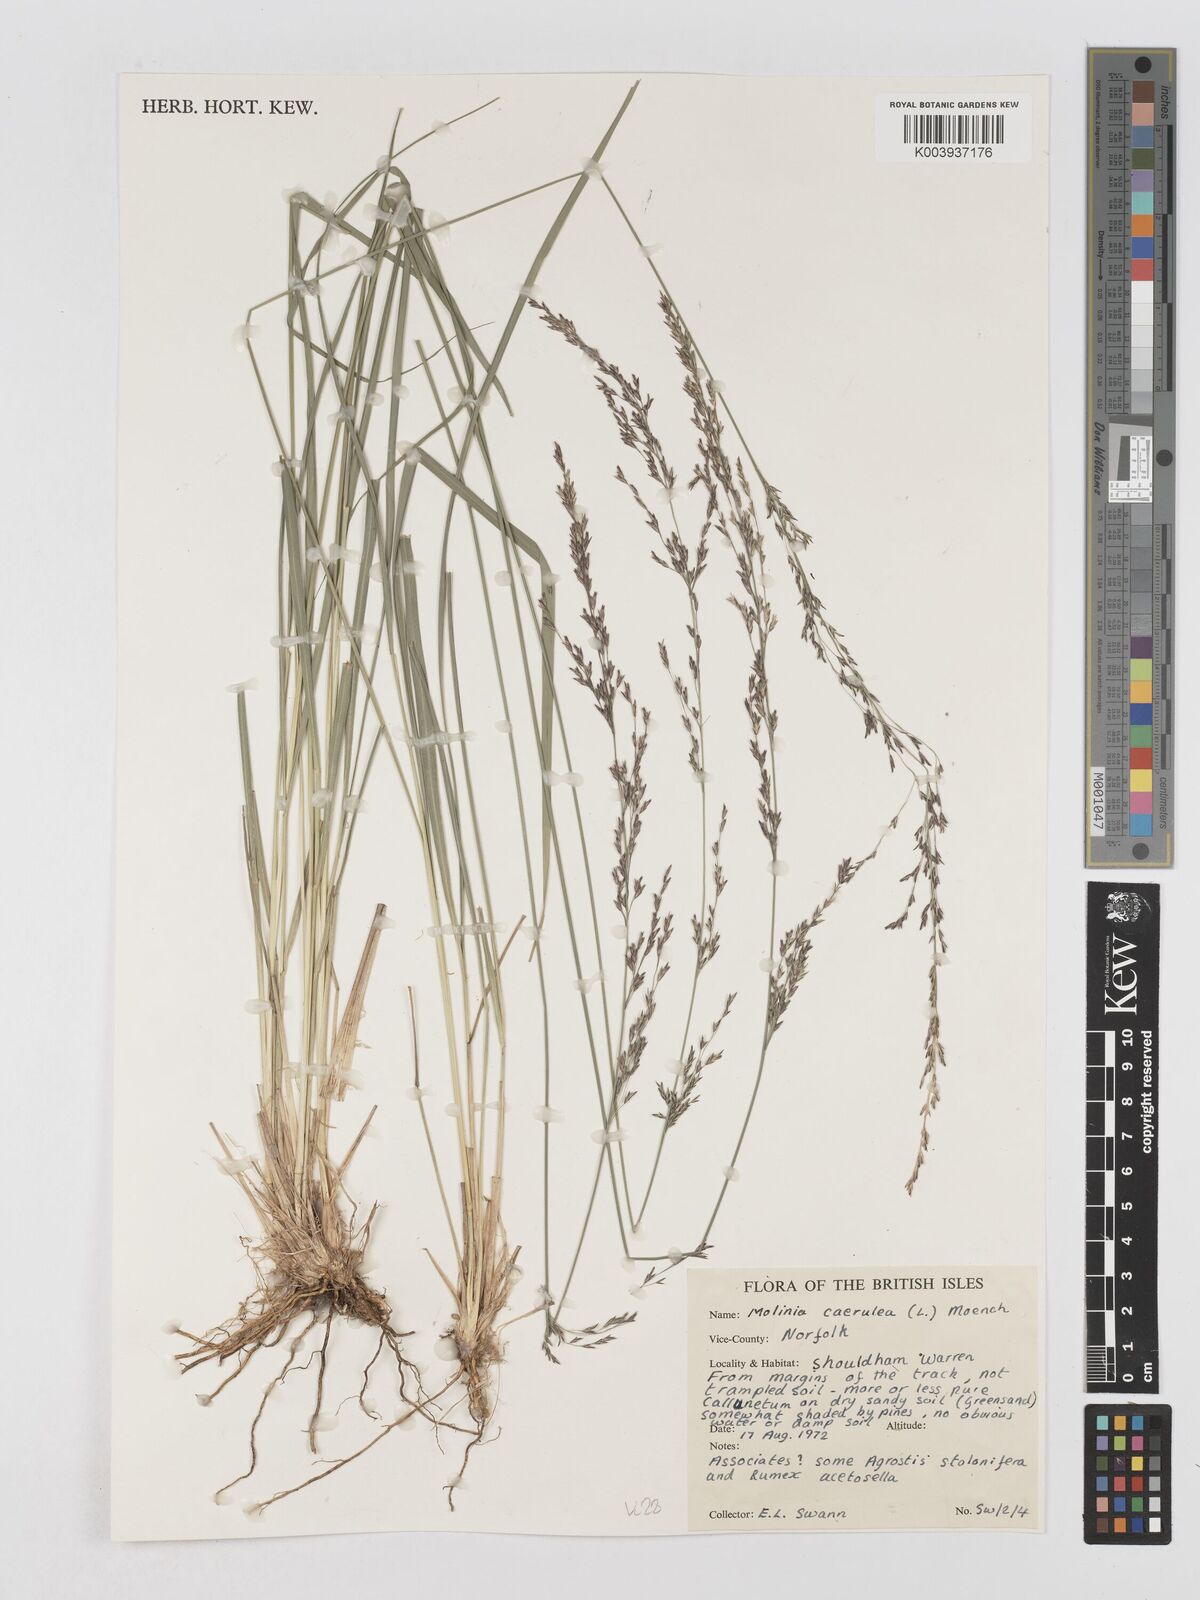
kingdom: Plantae
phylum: Tracheophyta
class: Liliopsida
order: Poales
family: Poaceae
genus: Molinia
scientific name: Molinia caerulea
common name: Purple moor-grass
